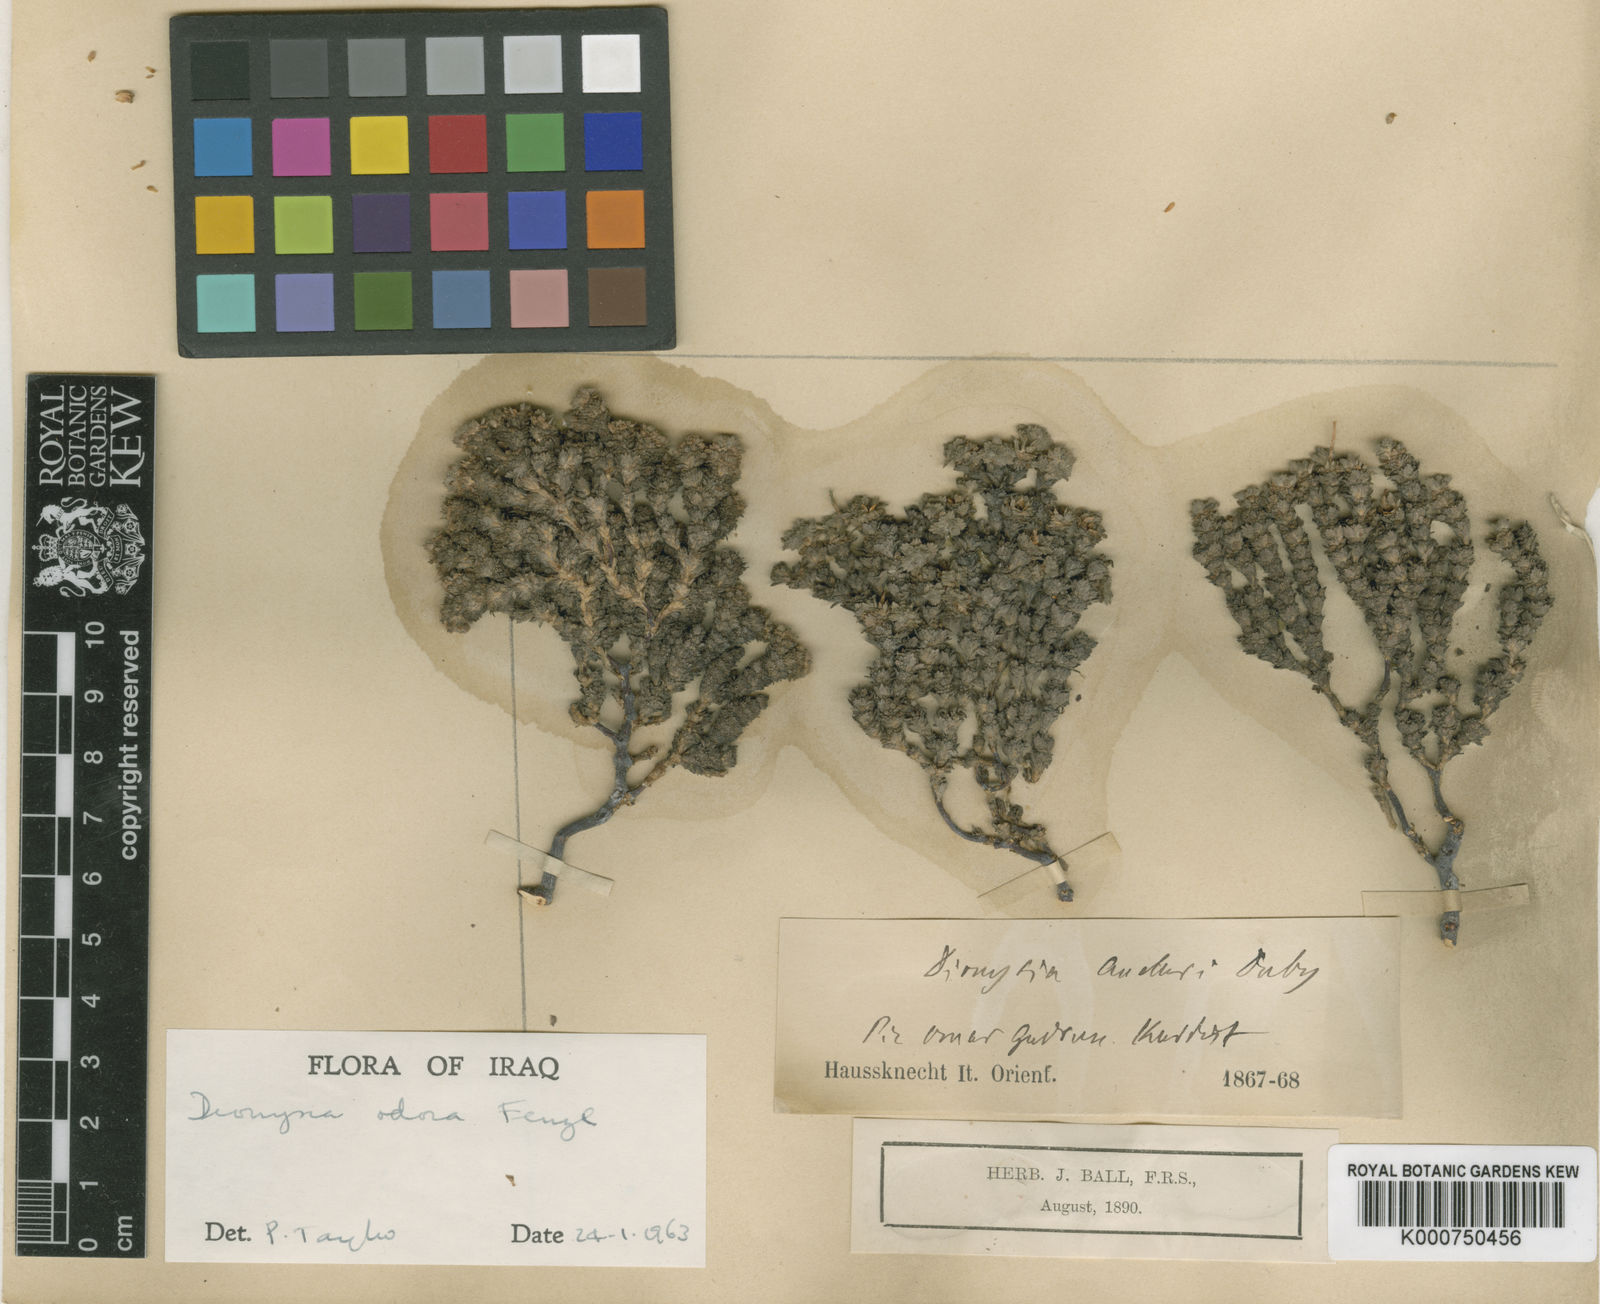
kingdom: Plantae
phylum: Tracheophyta
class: Magnoliopsida
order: Ericales
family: Primulaceae
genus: Dionysia
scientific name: Dionysia odora
